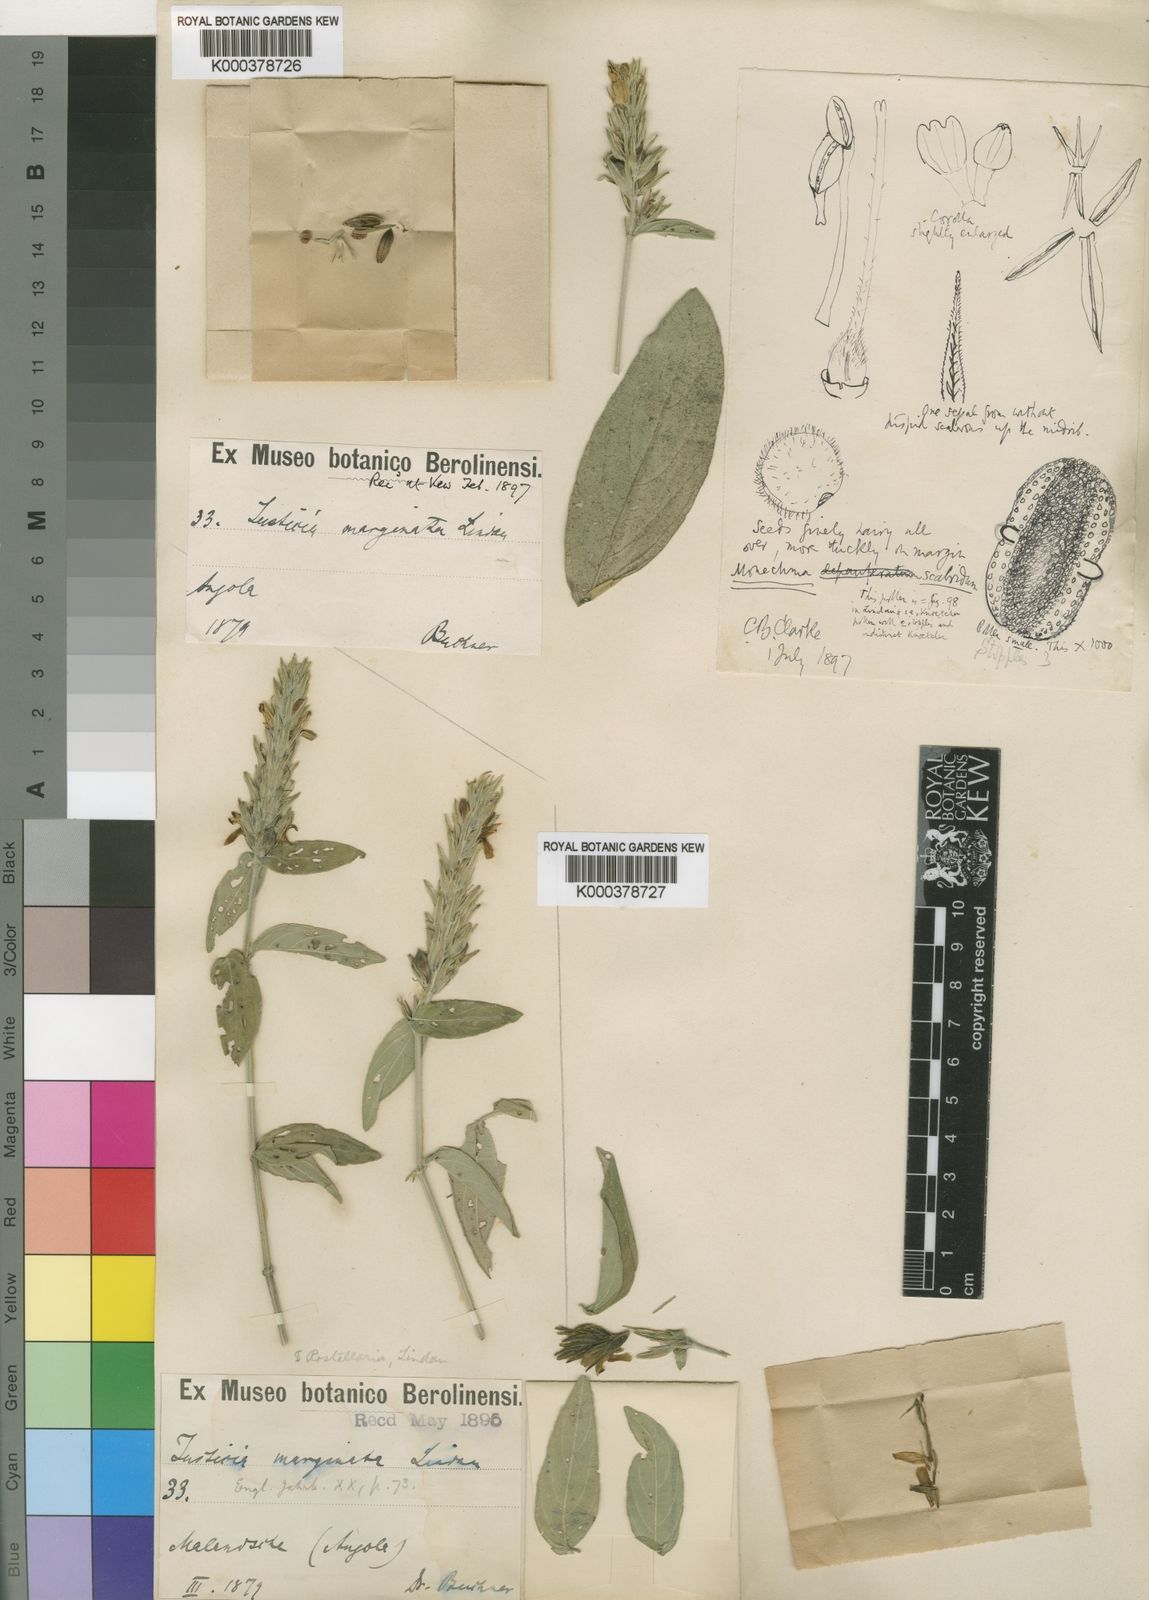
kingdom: Plantae
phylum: Tracheophyta
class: Magnoliopsida
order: Lamiales
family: Acanthaceae
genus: Monechma
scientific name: Monechma depauperatum
